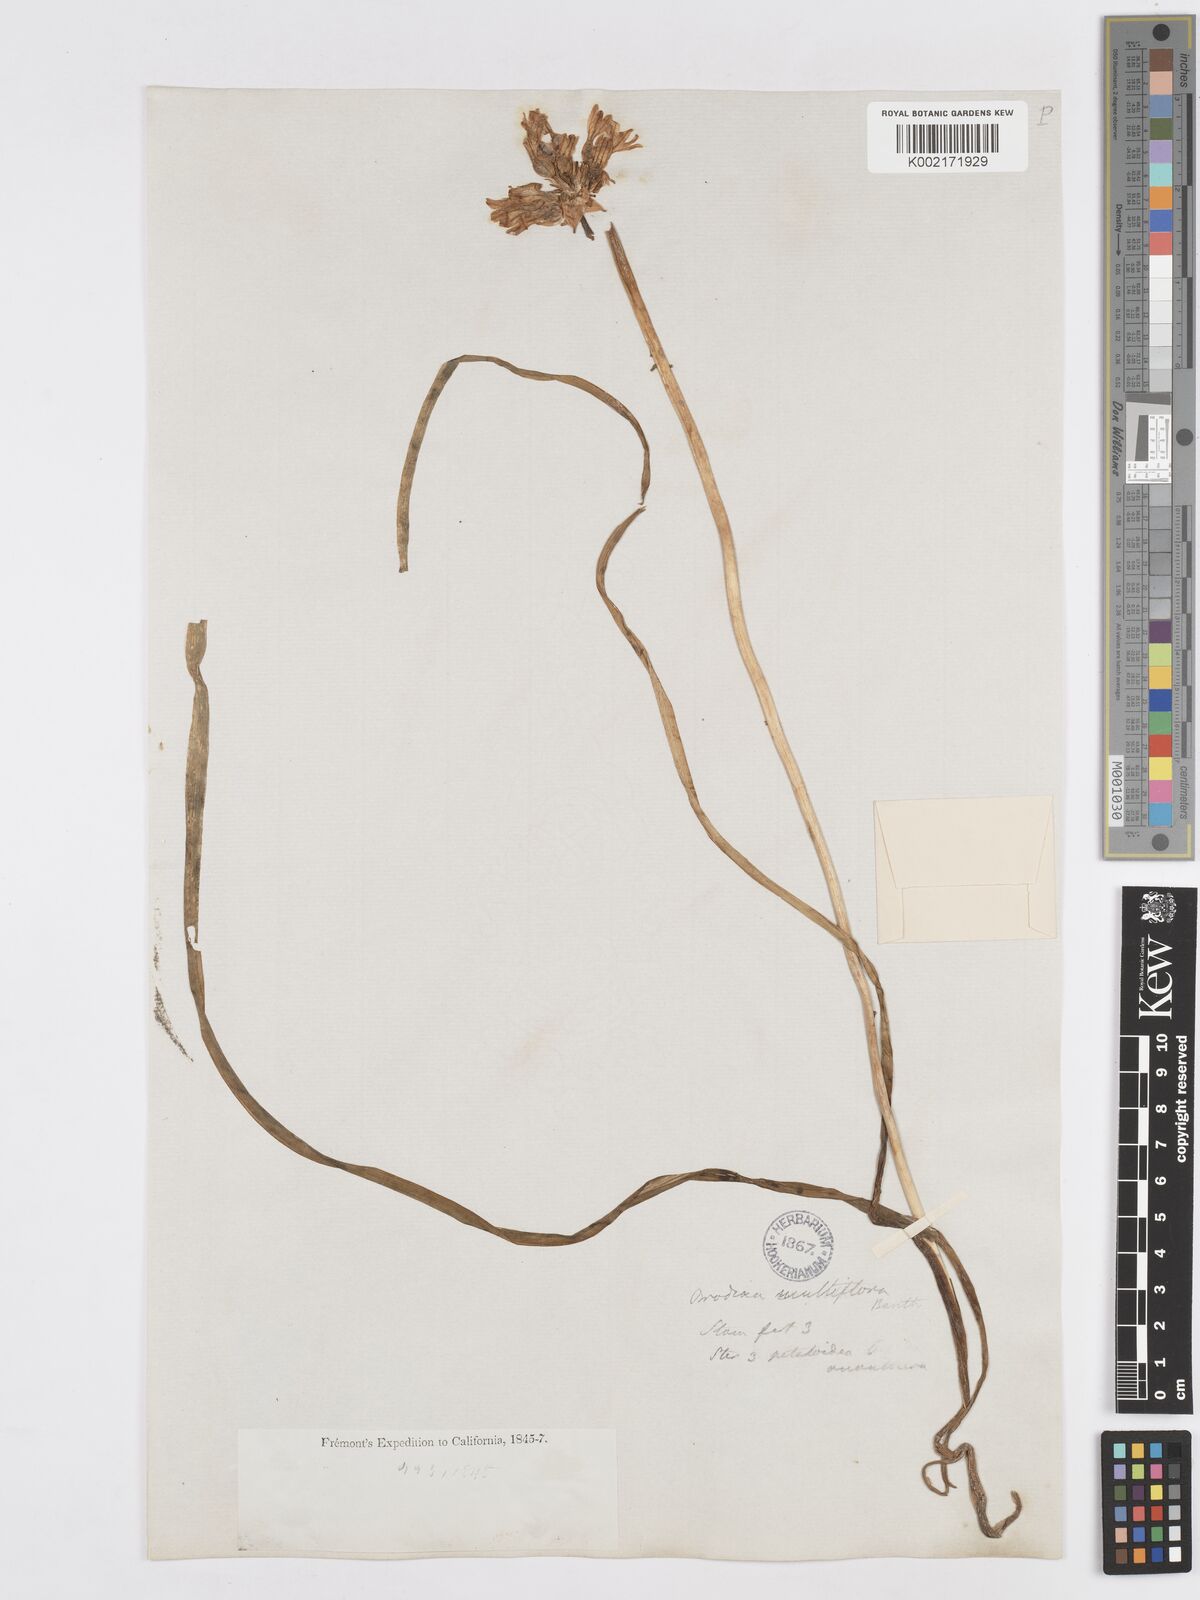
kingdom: Plantae
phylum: Tracheophyta
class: Liliopsida
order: Asparagales
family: Asparagaceae
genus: Dichelostemma
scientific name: Dichelostemma multiflorum
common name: Round-tooth ookow
